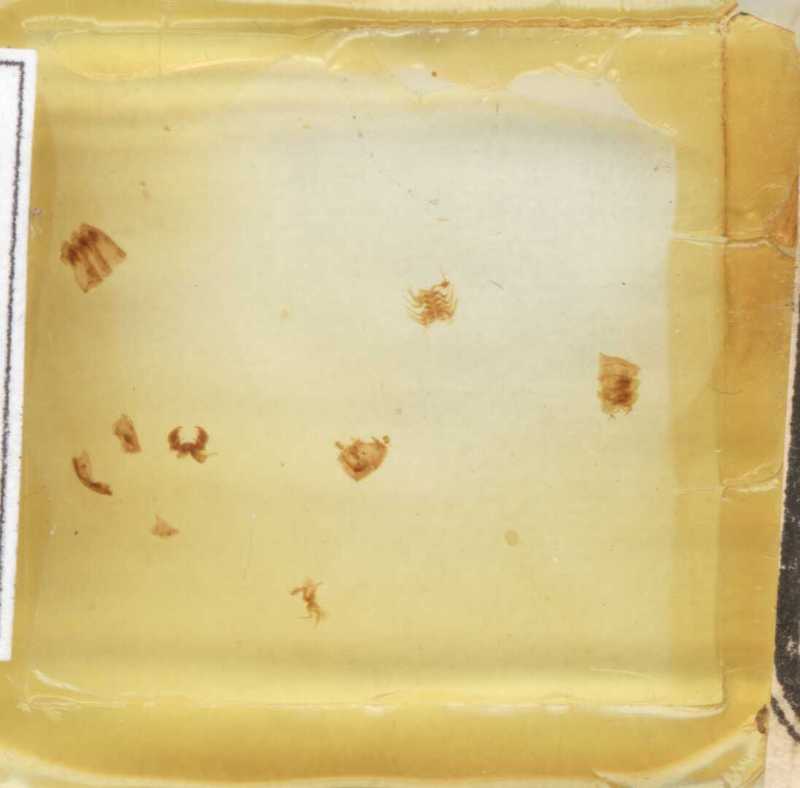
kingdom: Animalia
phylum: Arthropoda
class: Diplopoda
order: Glomerida
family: Glomeridae
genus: Trachysphaera
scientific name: Trachysphaera gibbula
